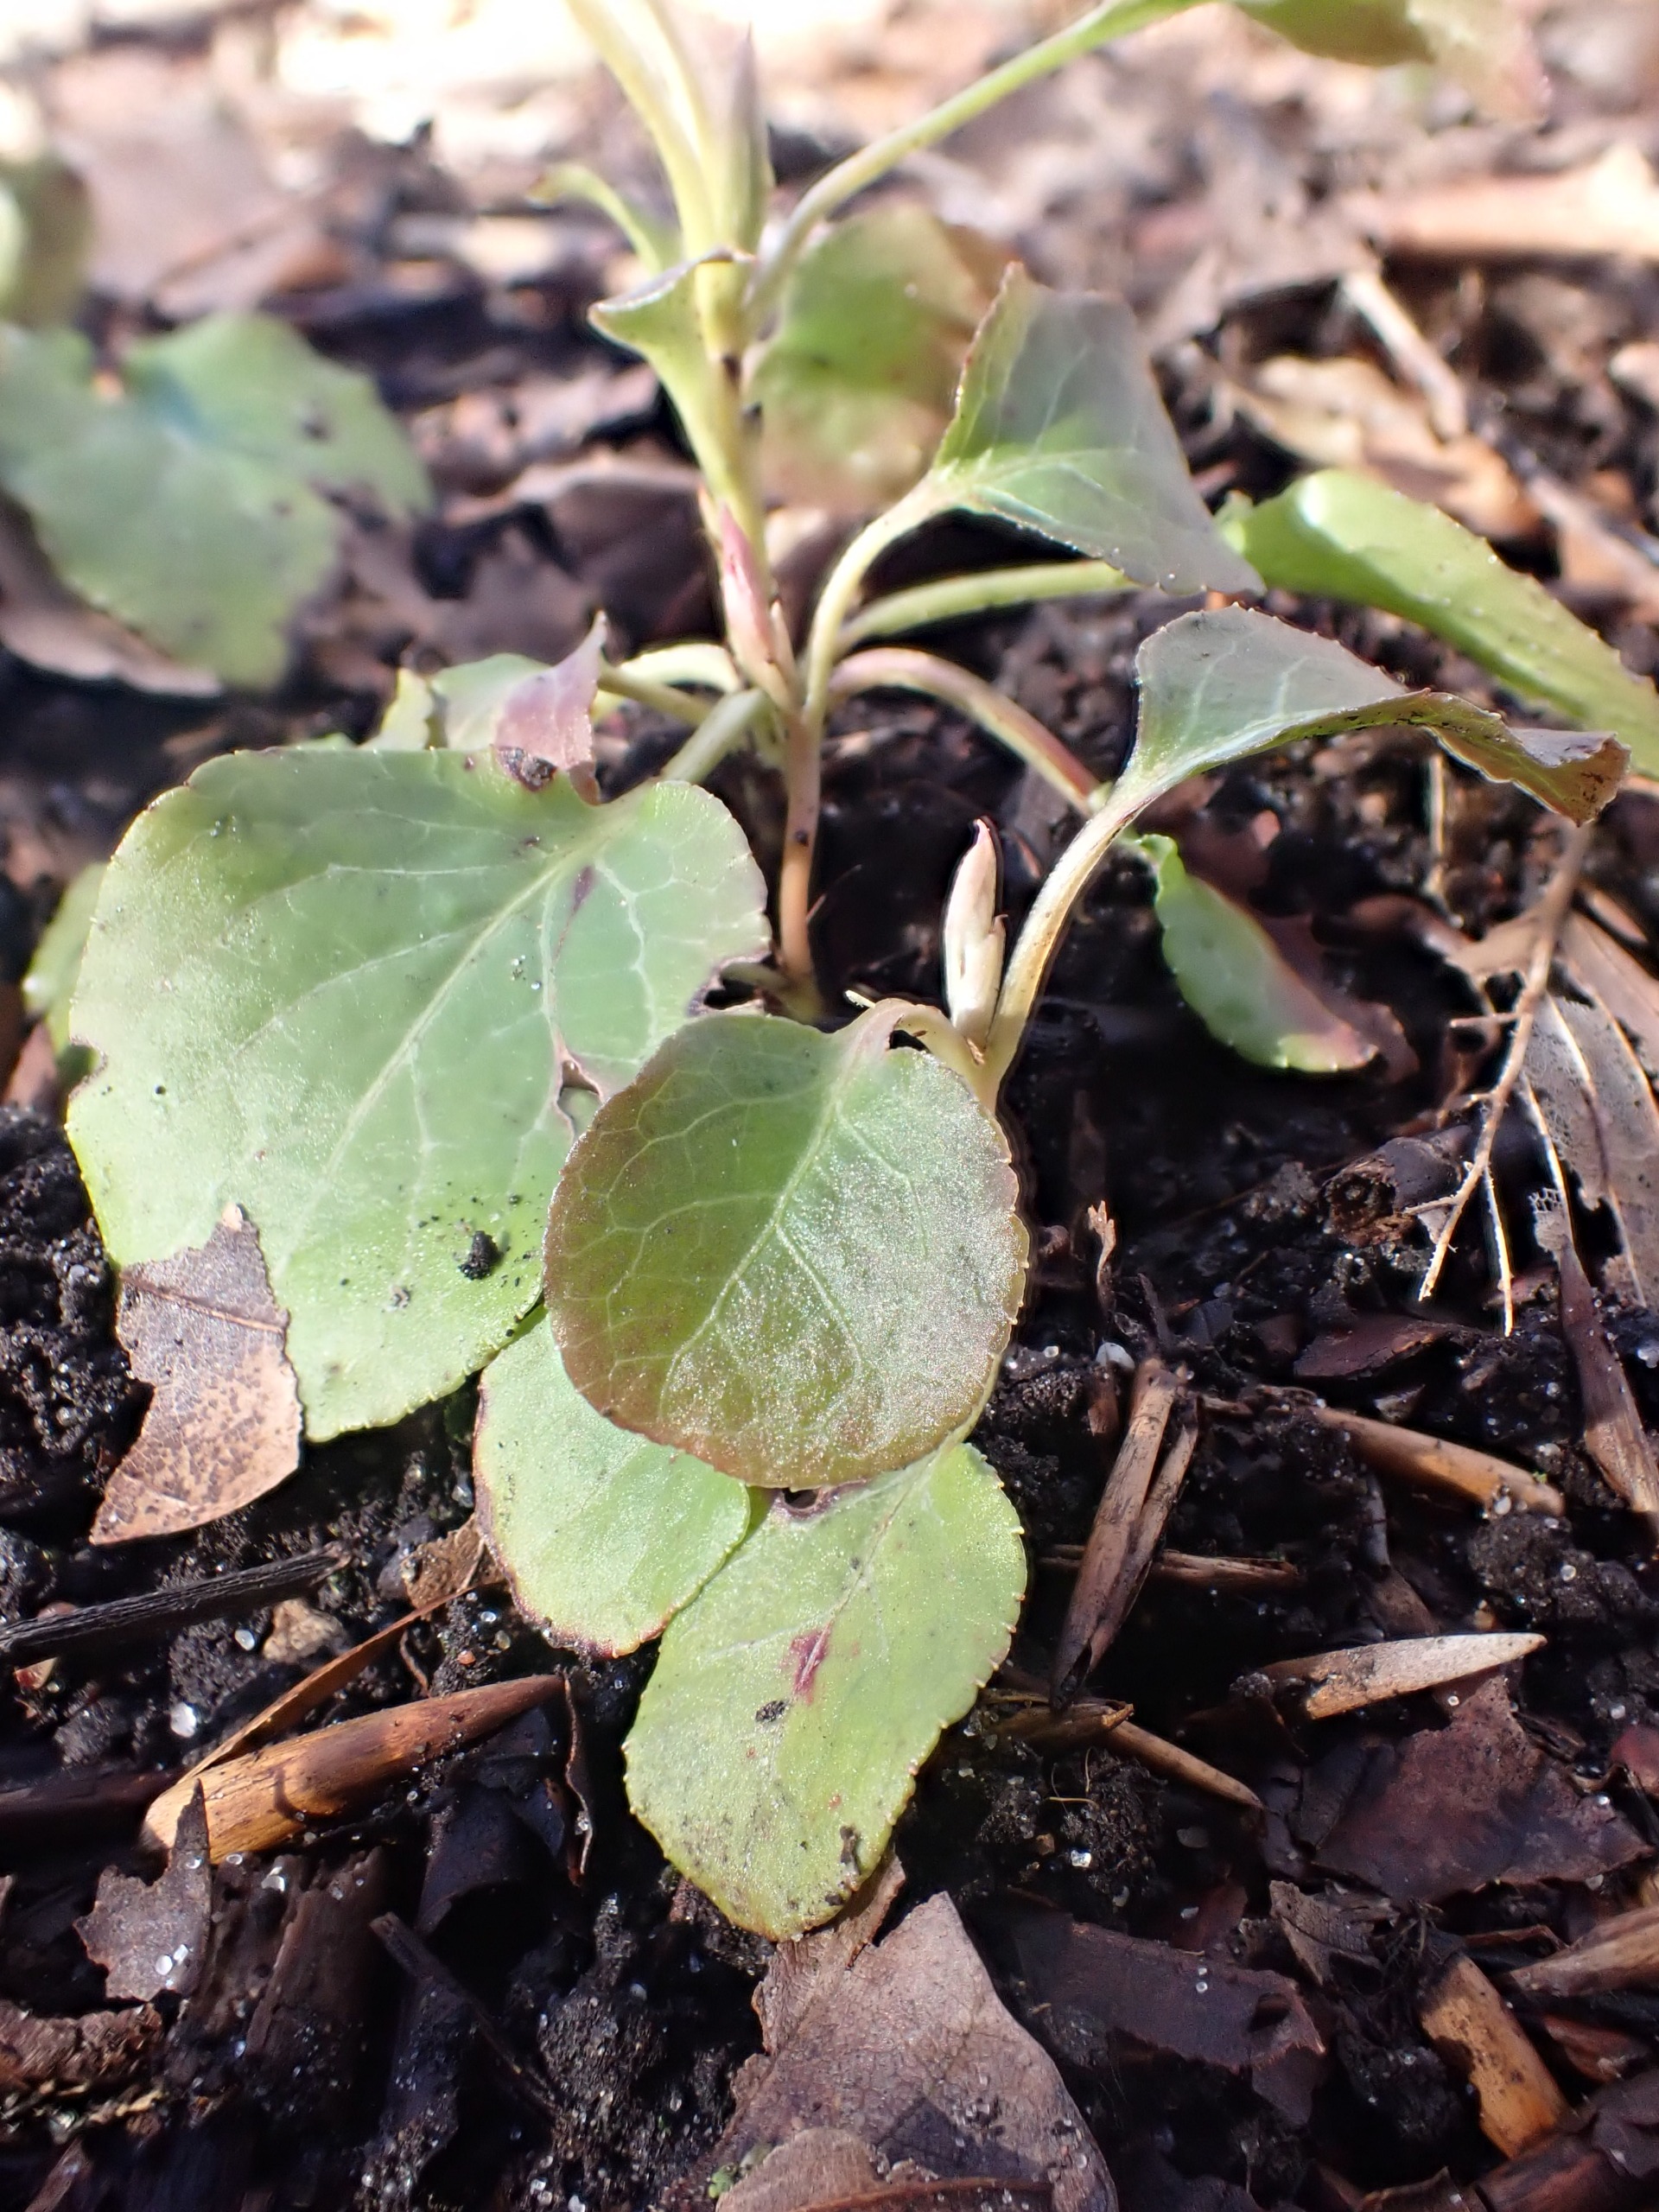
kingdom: Plantae
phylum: Tracheophyta
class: Magnoliopsida
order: Ericales
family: Ericaceae
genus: Pyrola
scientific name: Pyrola minor
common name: Liden vintergrøn
